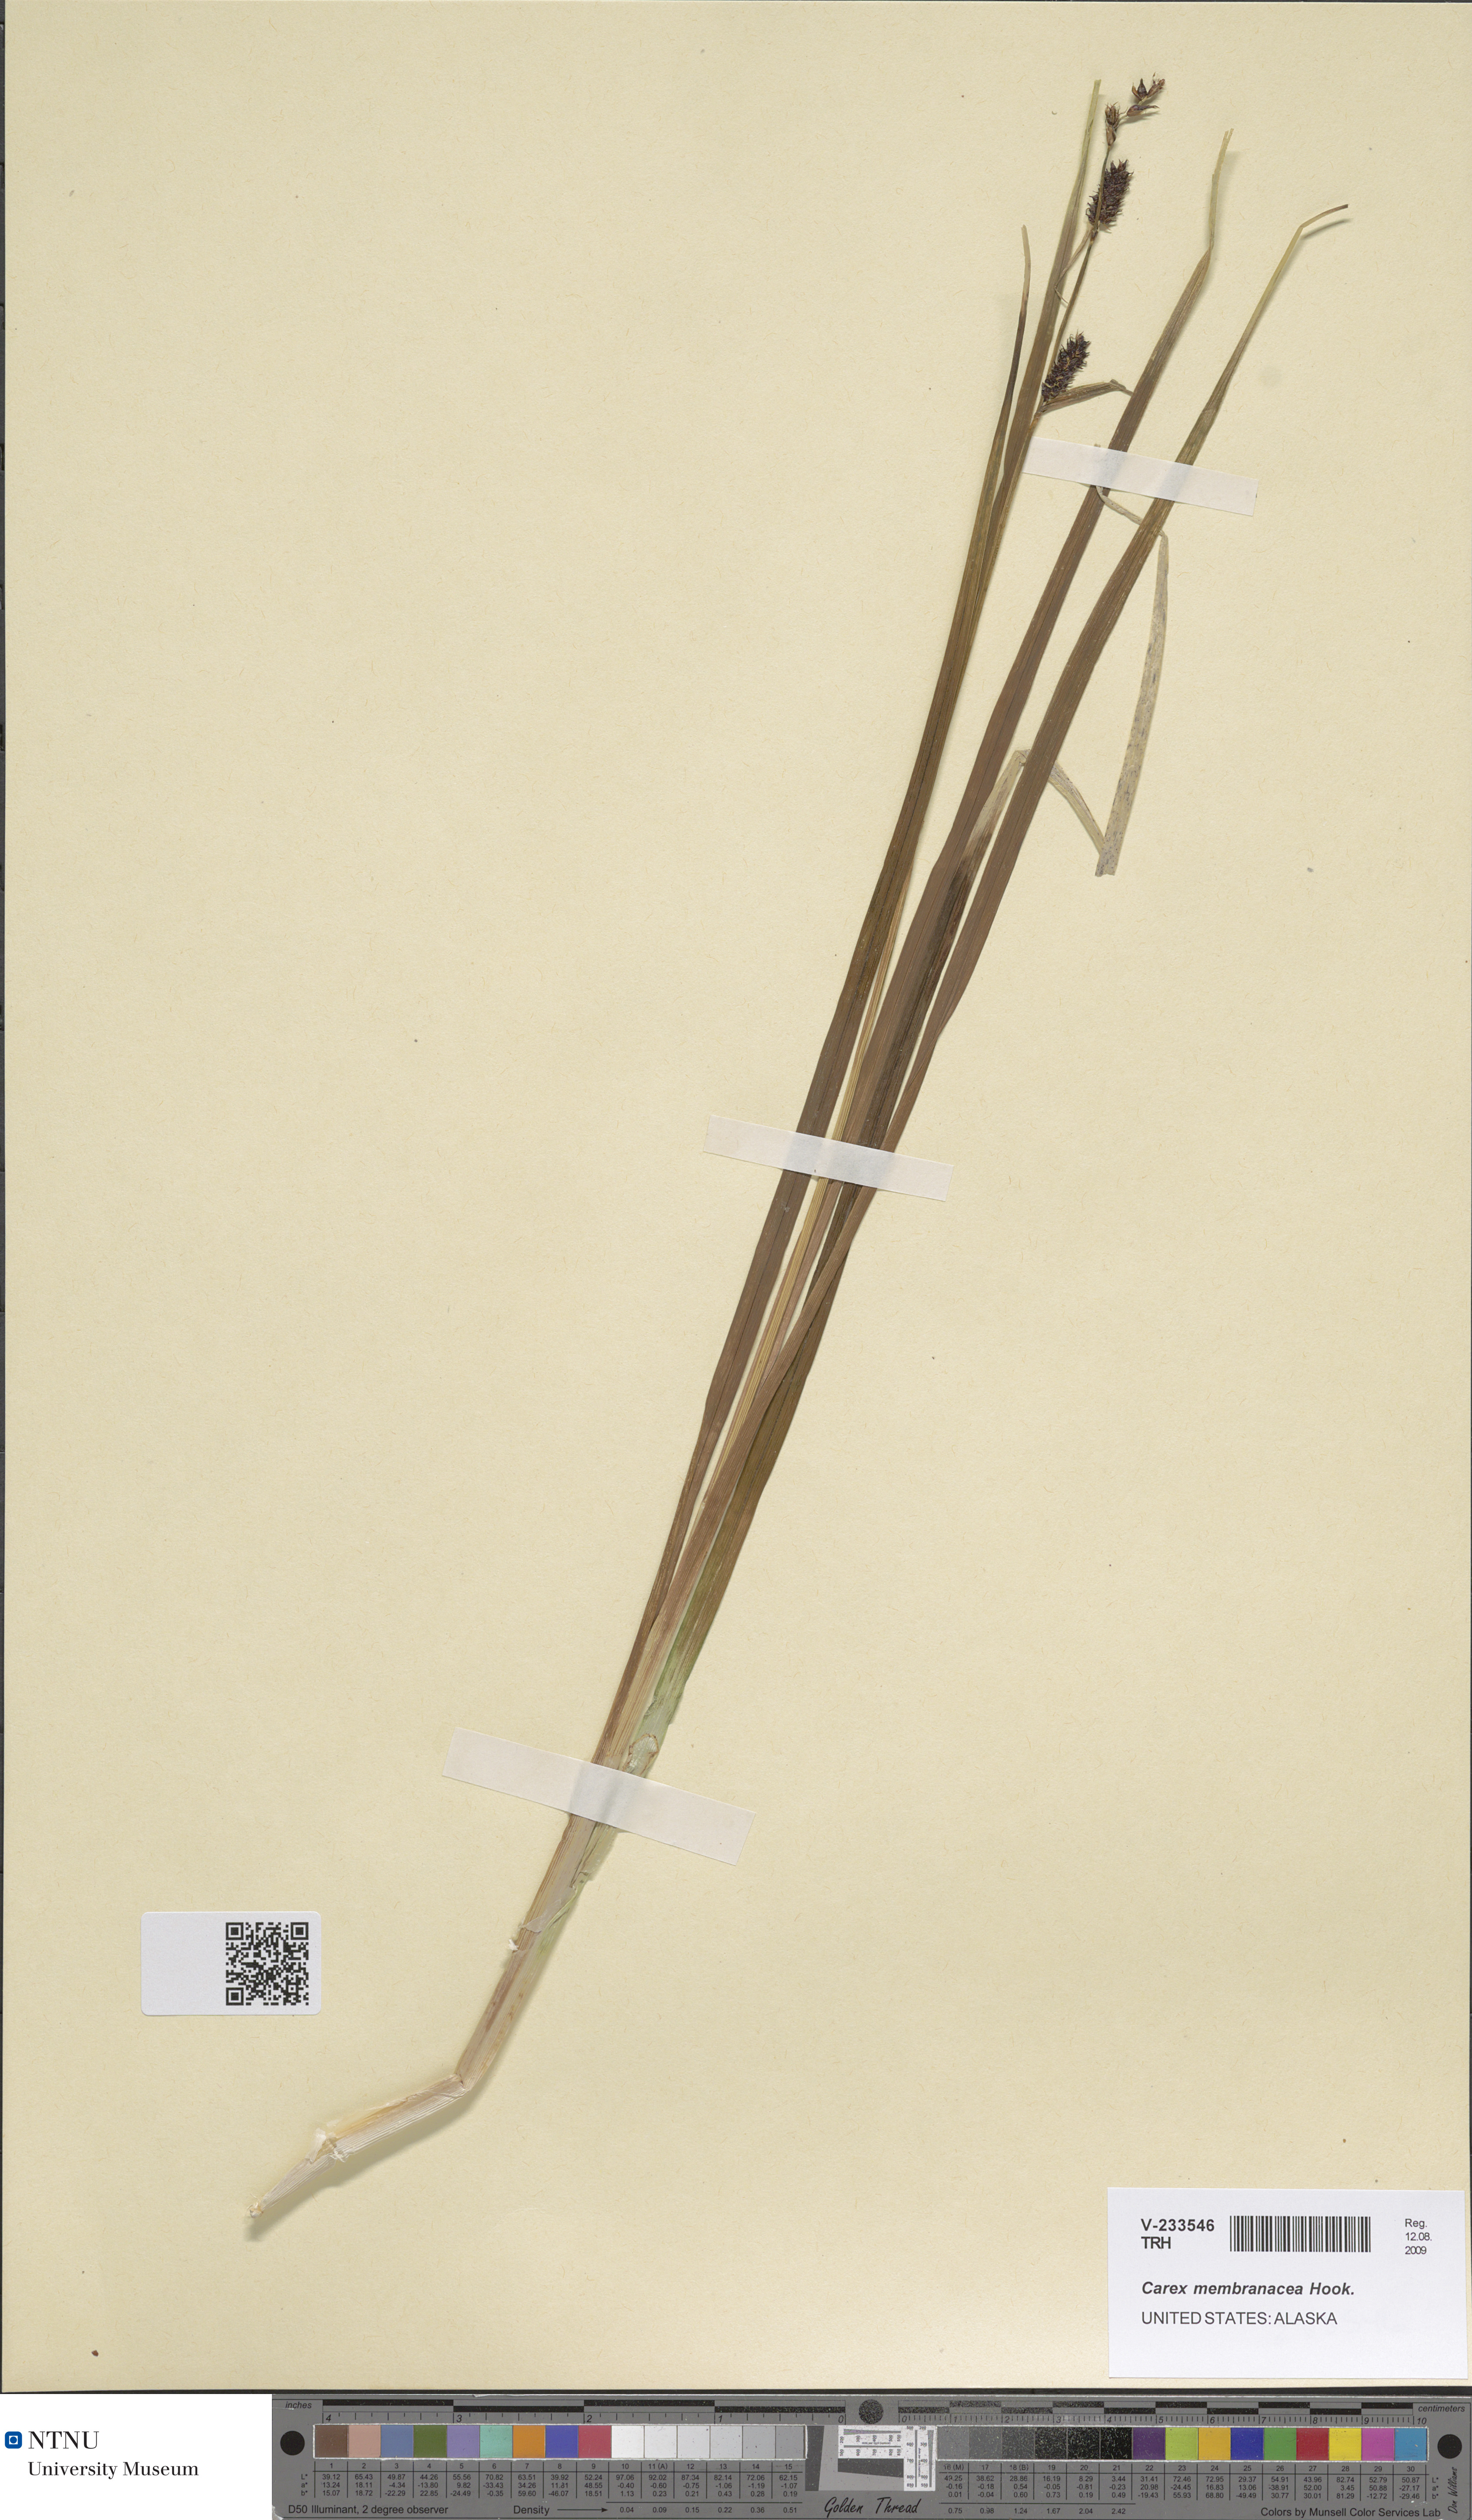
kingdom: Plantae
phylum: Tracheophyta
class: Liliopsida
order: Poales
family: Cyperaceae
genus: Carex
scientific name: Carex membranacea
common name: Fragile sedge
